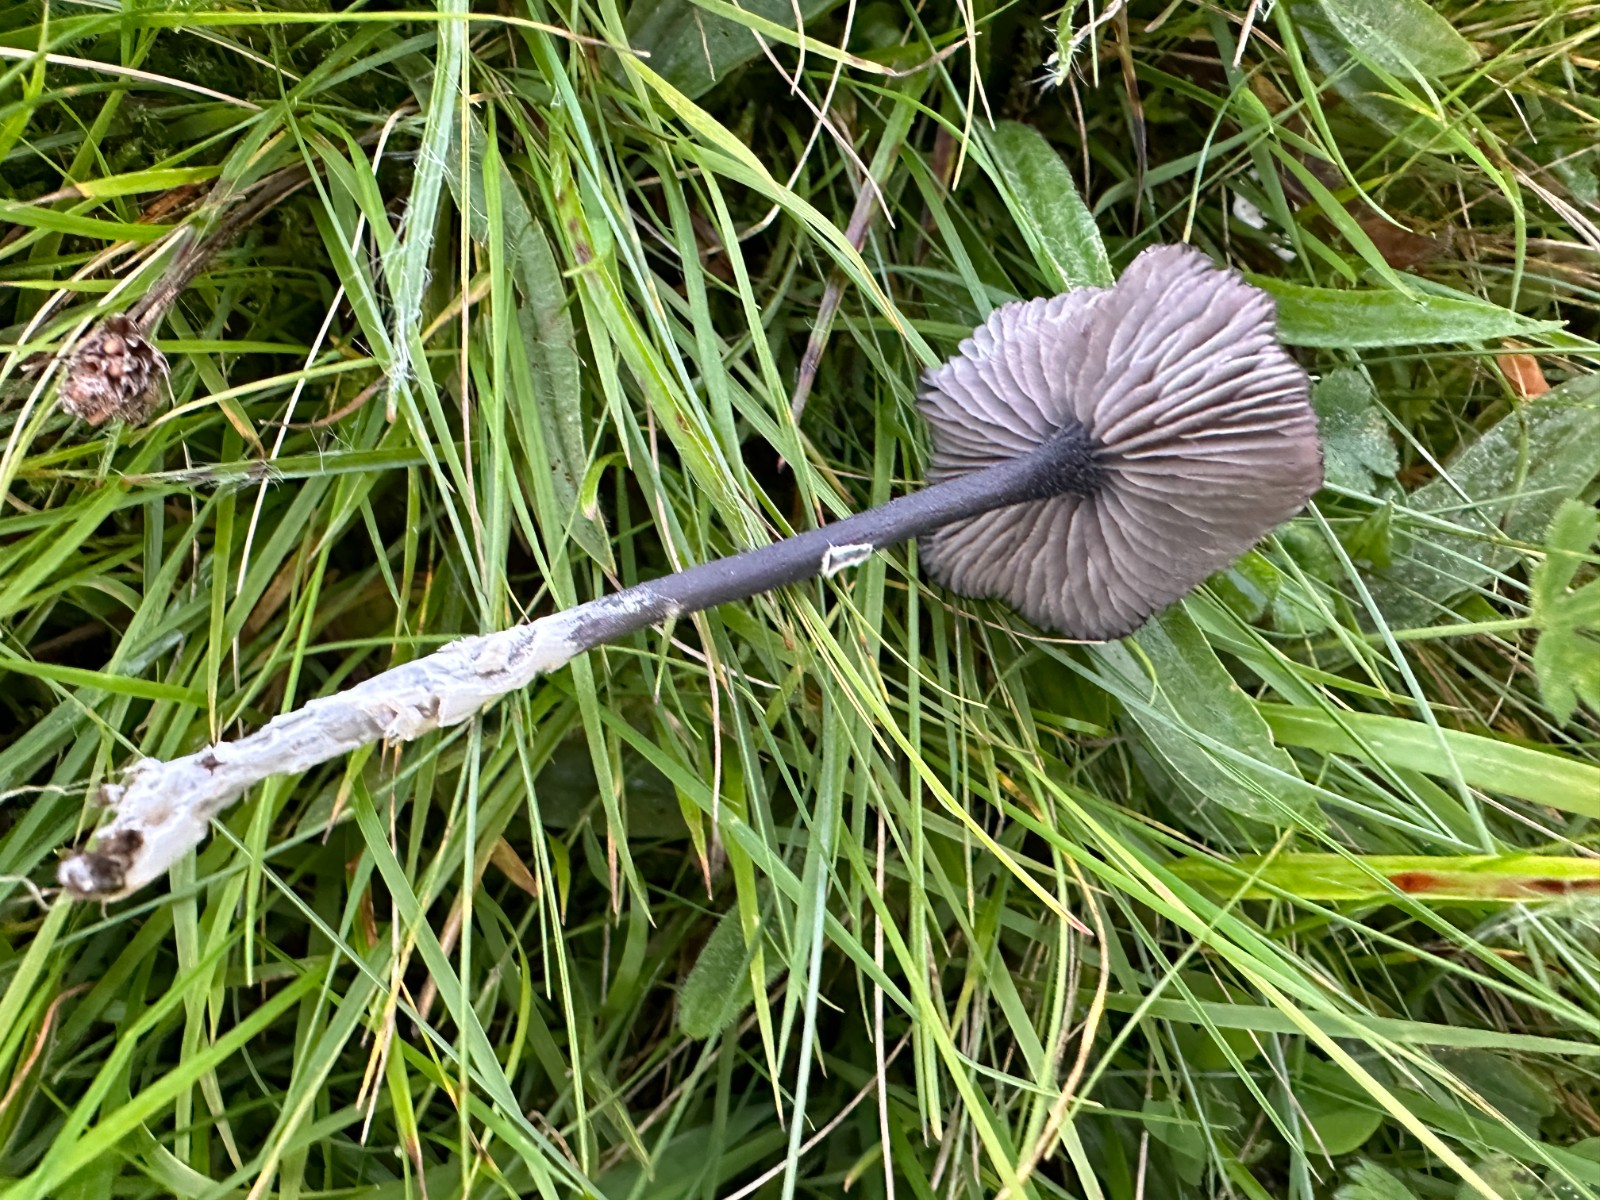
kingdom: Fungi
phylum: Basidiomycota
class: Agaricomycetes
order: Agaricales
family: Entolomataceae
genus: Entoloma
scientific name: Entoloma chalybeum
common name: blåbladet rødblad
